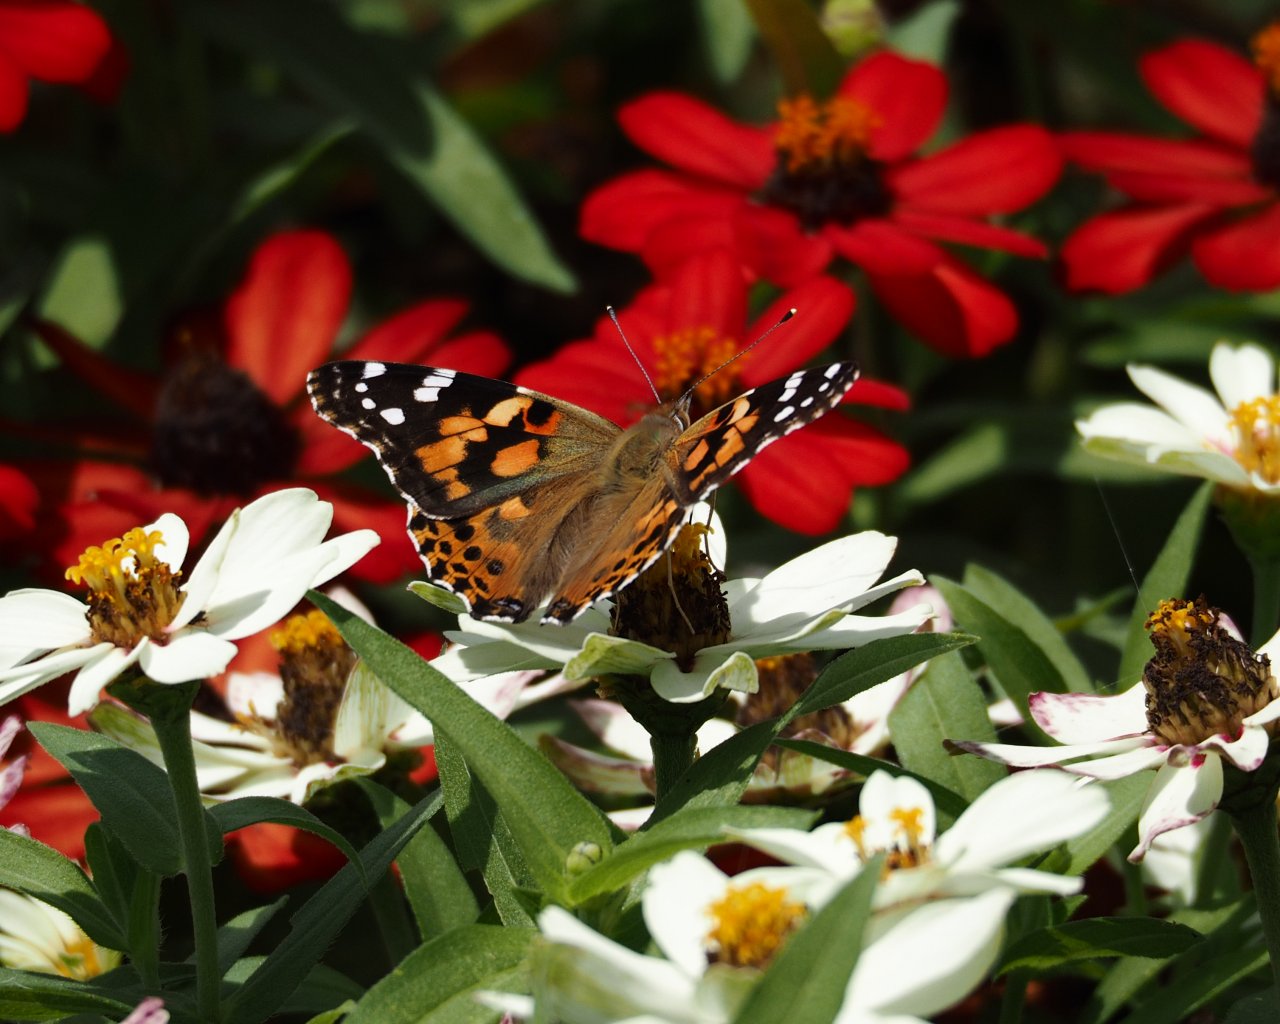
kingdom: Animalia
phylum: Arthropoda
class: Insecta
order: Lepidoptera
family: Nymphalidae
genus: Vanessa
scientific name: Vanessa cardui
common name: Painted Lady
